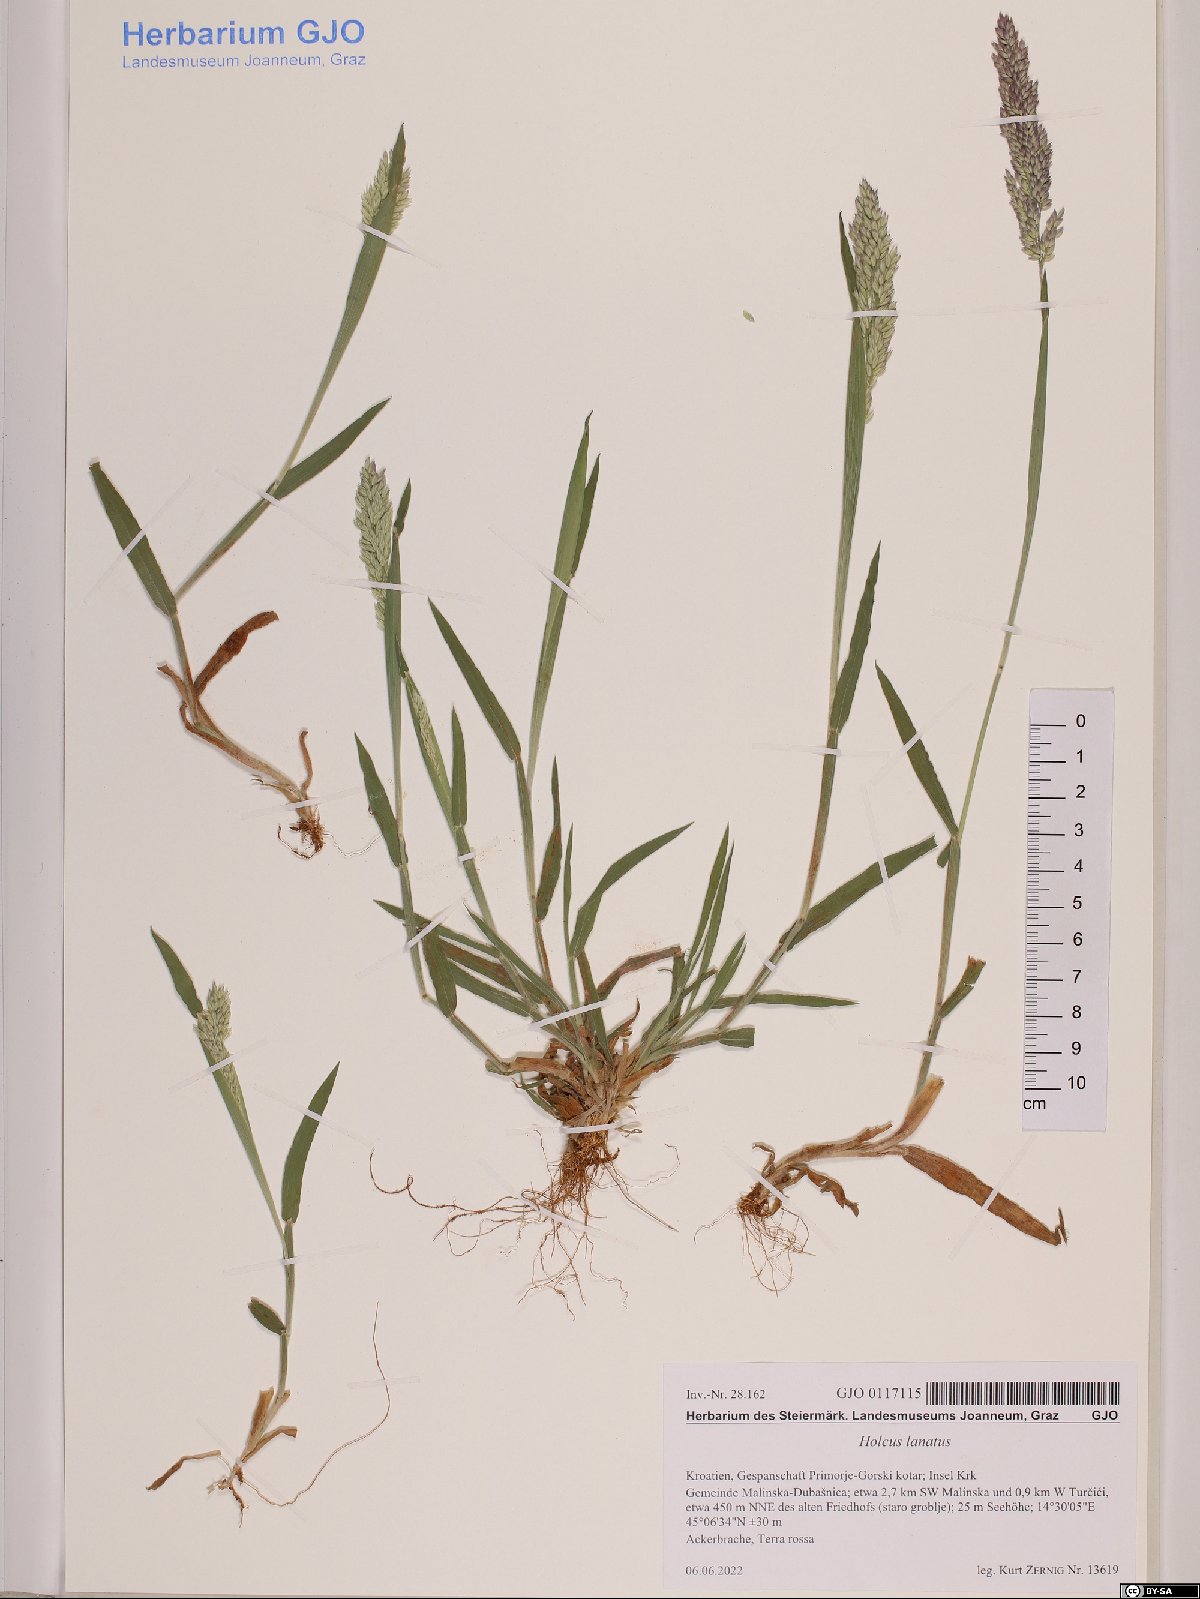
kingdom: Plantae
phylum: Tracheophyta
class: Liliopsida
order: Poales
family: Poaceae
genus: Holcus
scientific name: Holcus lanatus
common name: Yorkshire-fog
